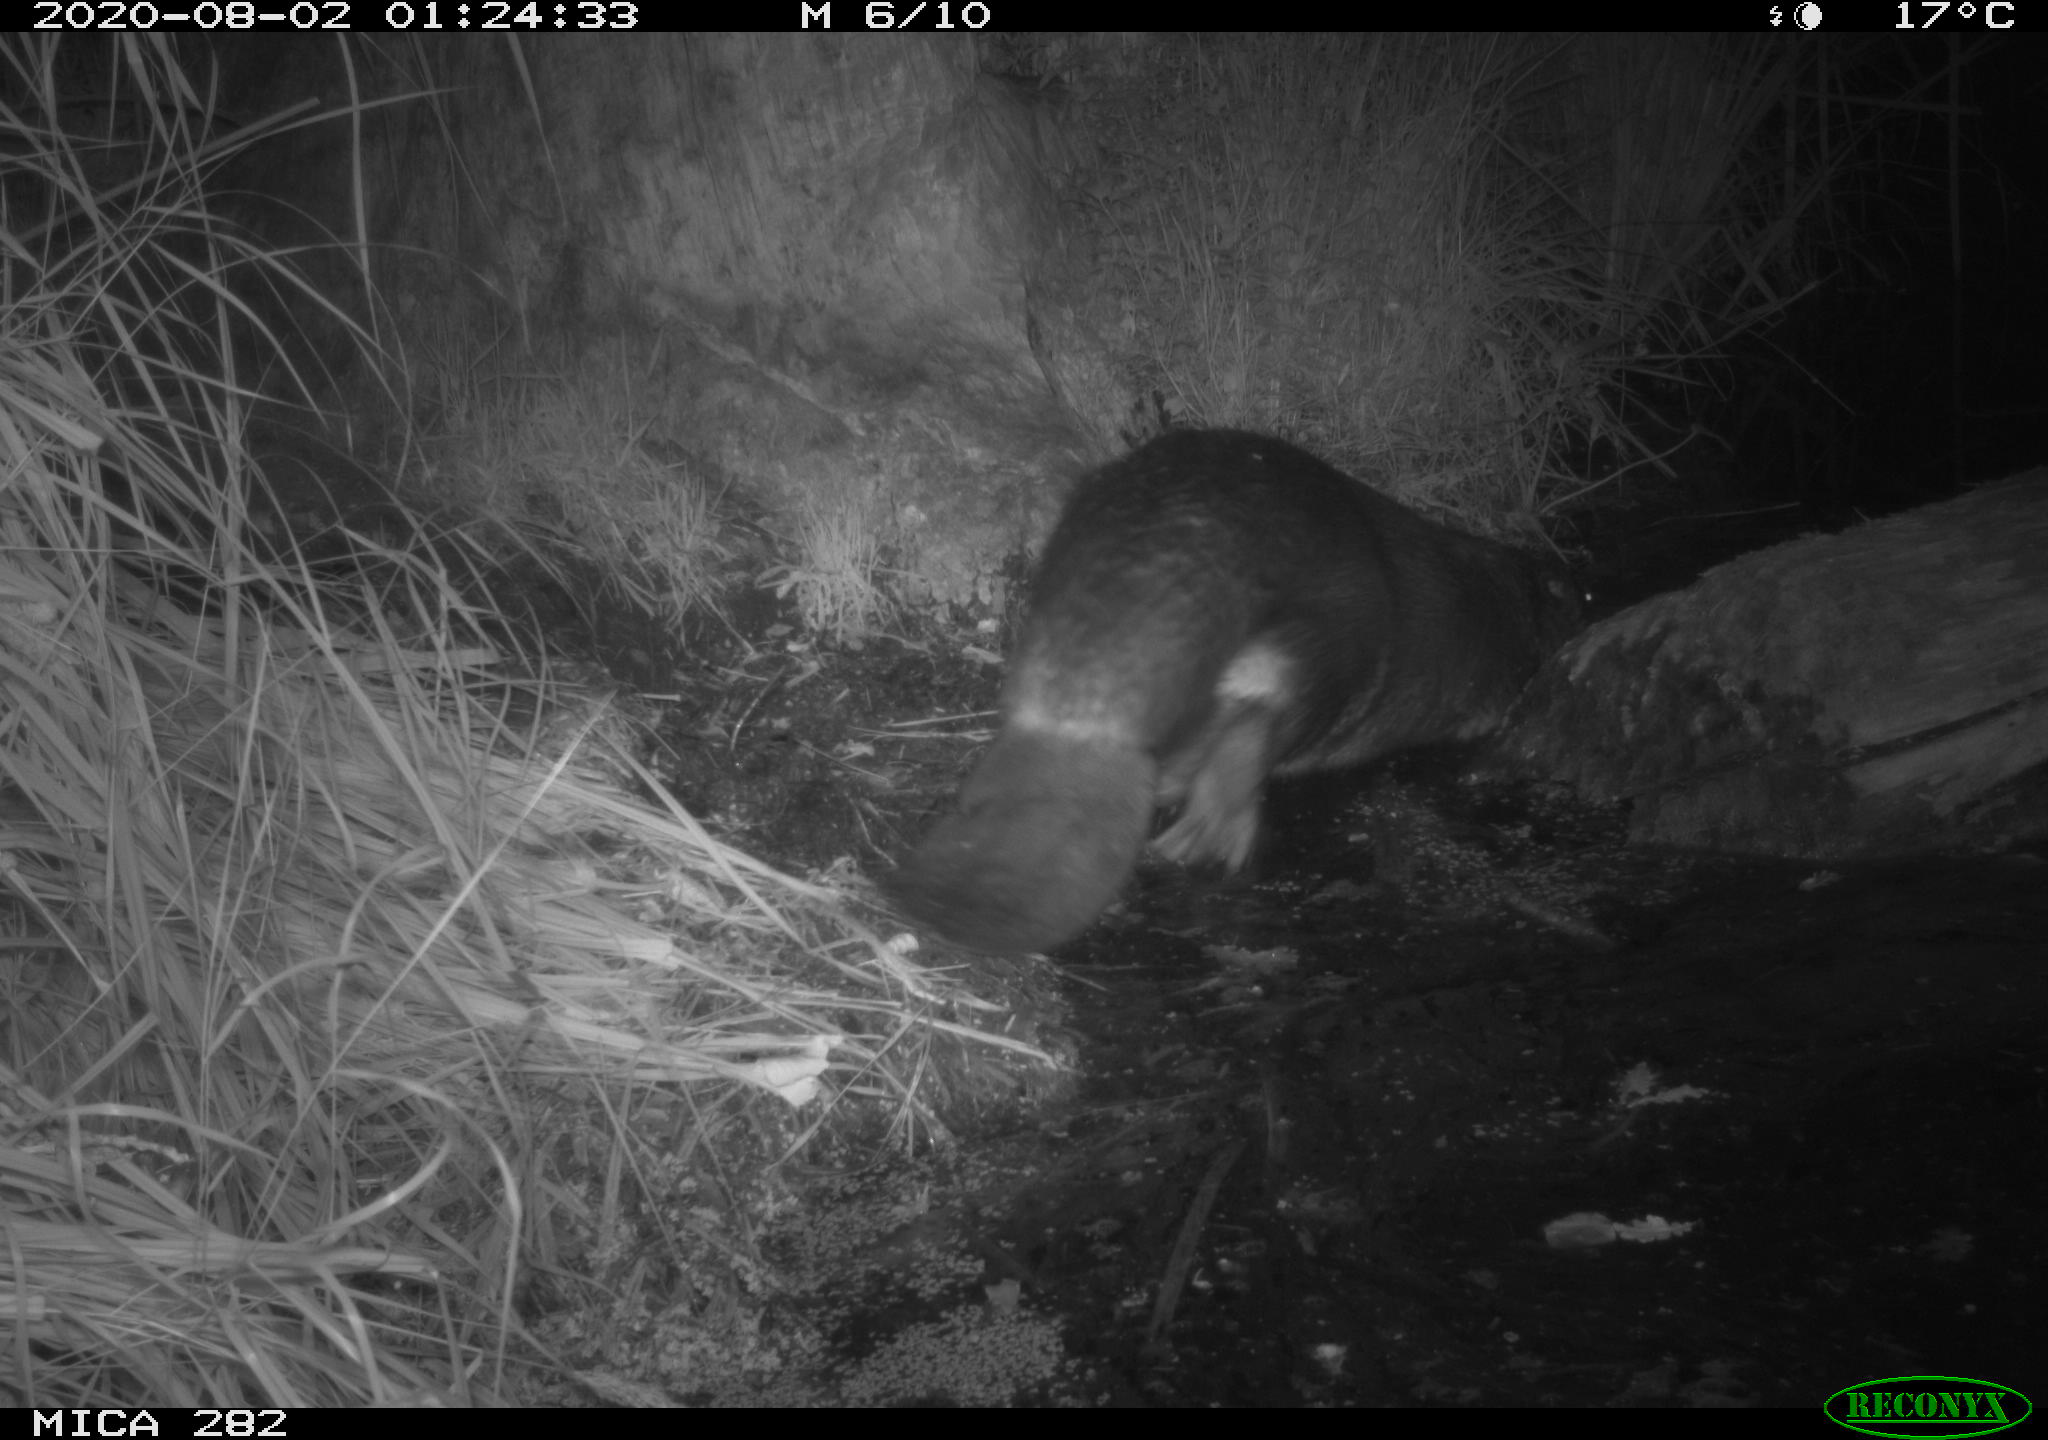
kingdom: Animalia
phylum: Chordata
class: Mammalia
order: Rodentia
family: Castoridae
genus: Castor
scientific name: Castor fiber
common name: Eurasian beaver
